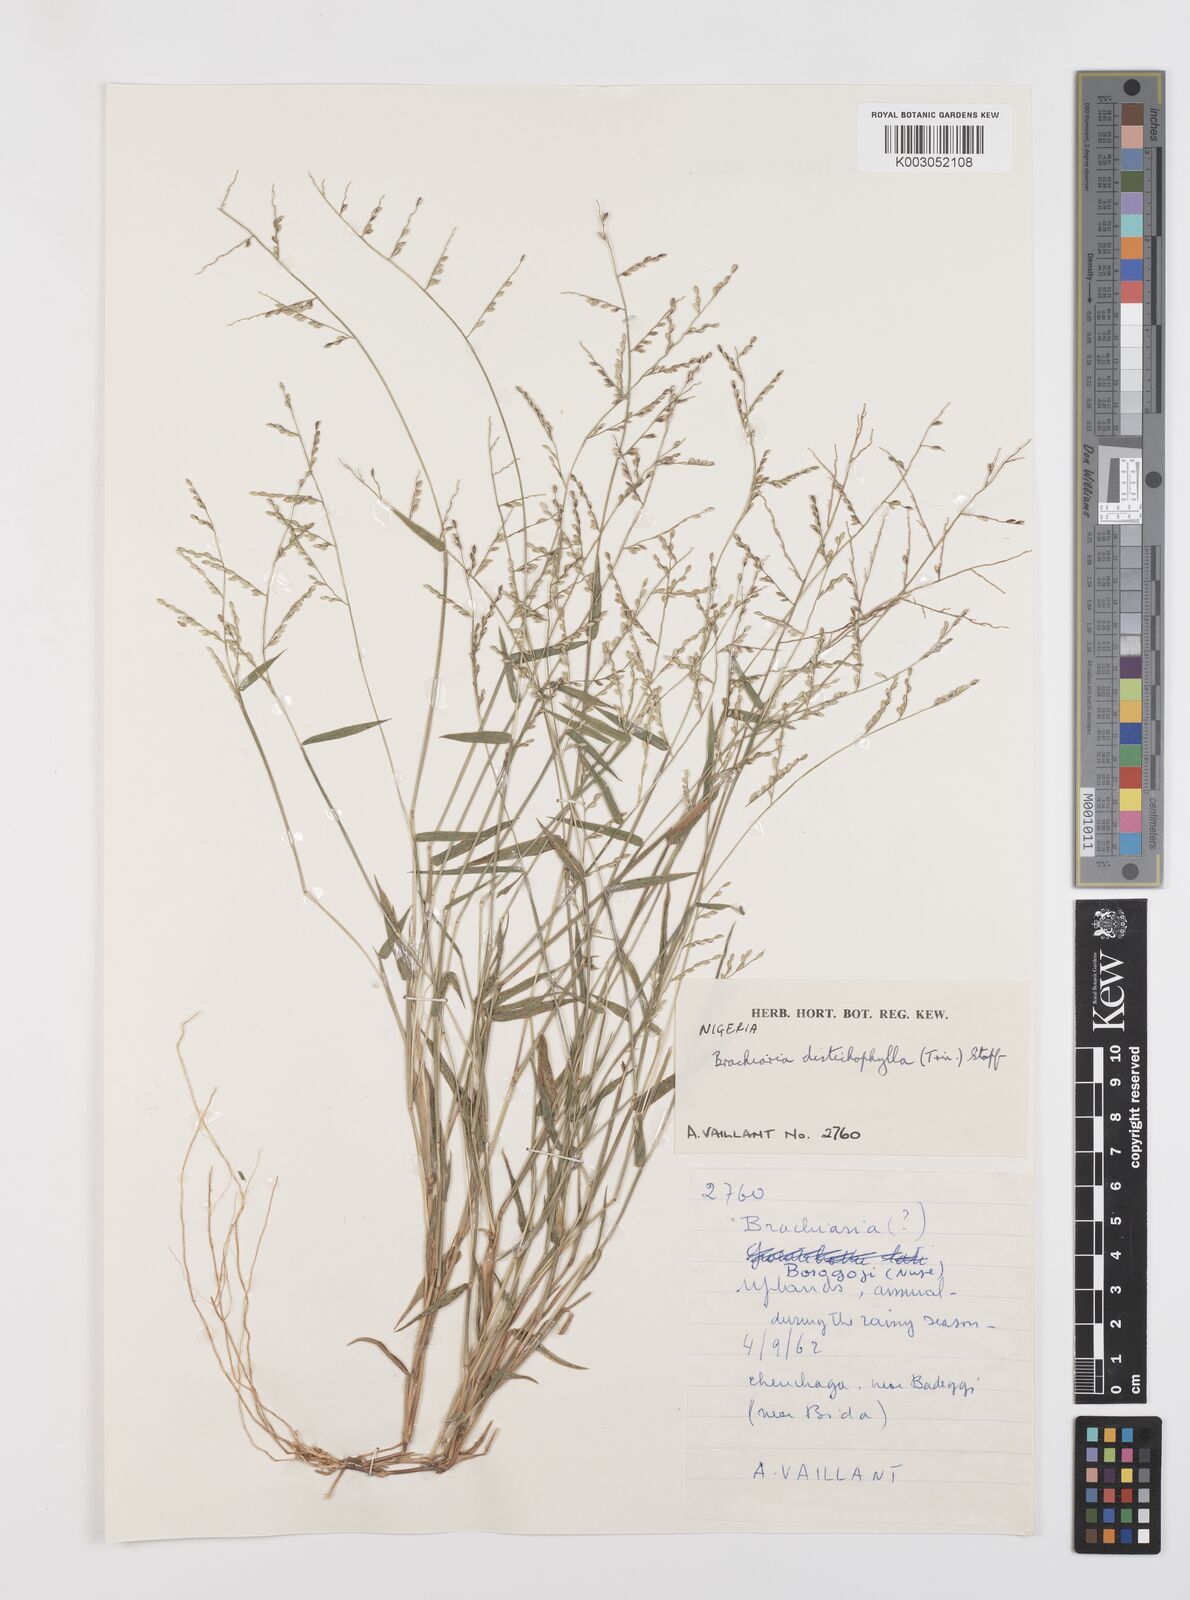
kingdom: Plantae
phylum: Tracheophyta
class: Liliopsida
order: Poales
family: Poaceae
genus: Urochloa
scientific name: Urochloa villosa
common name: Hairy signalgrass
